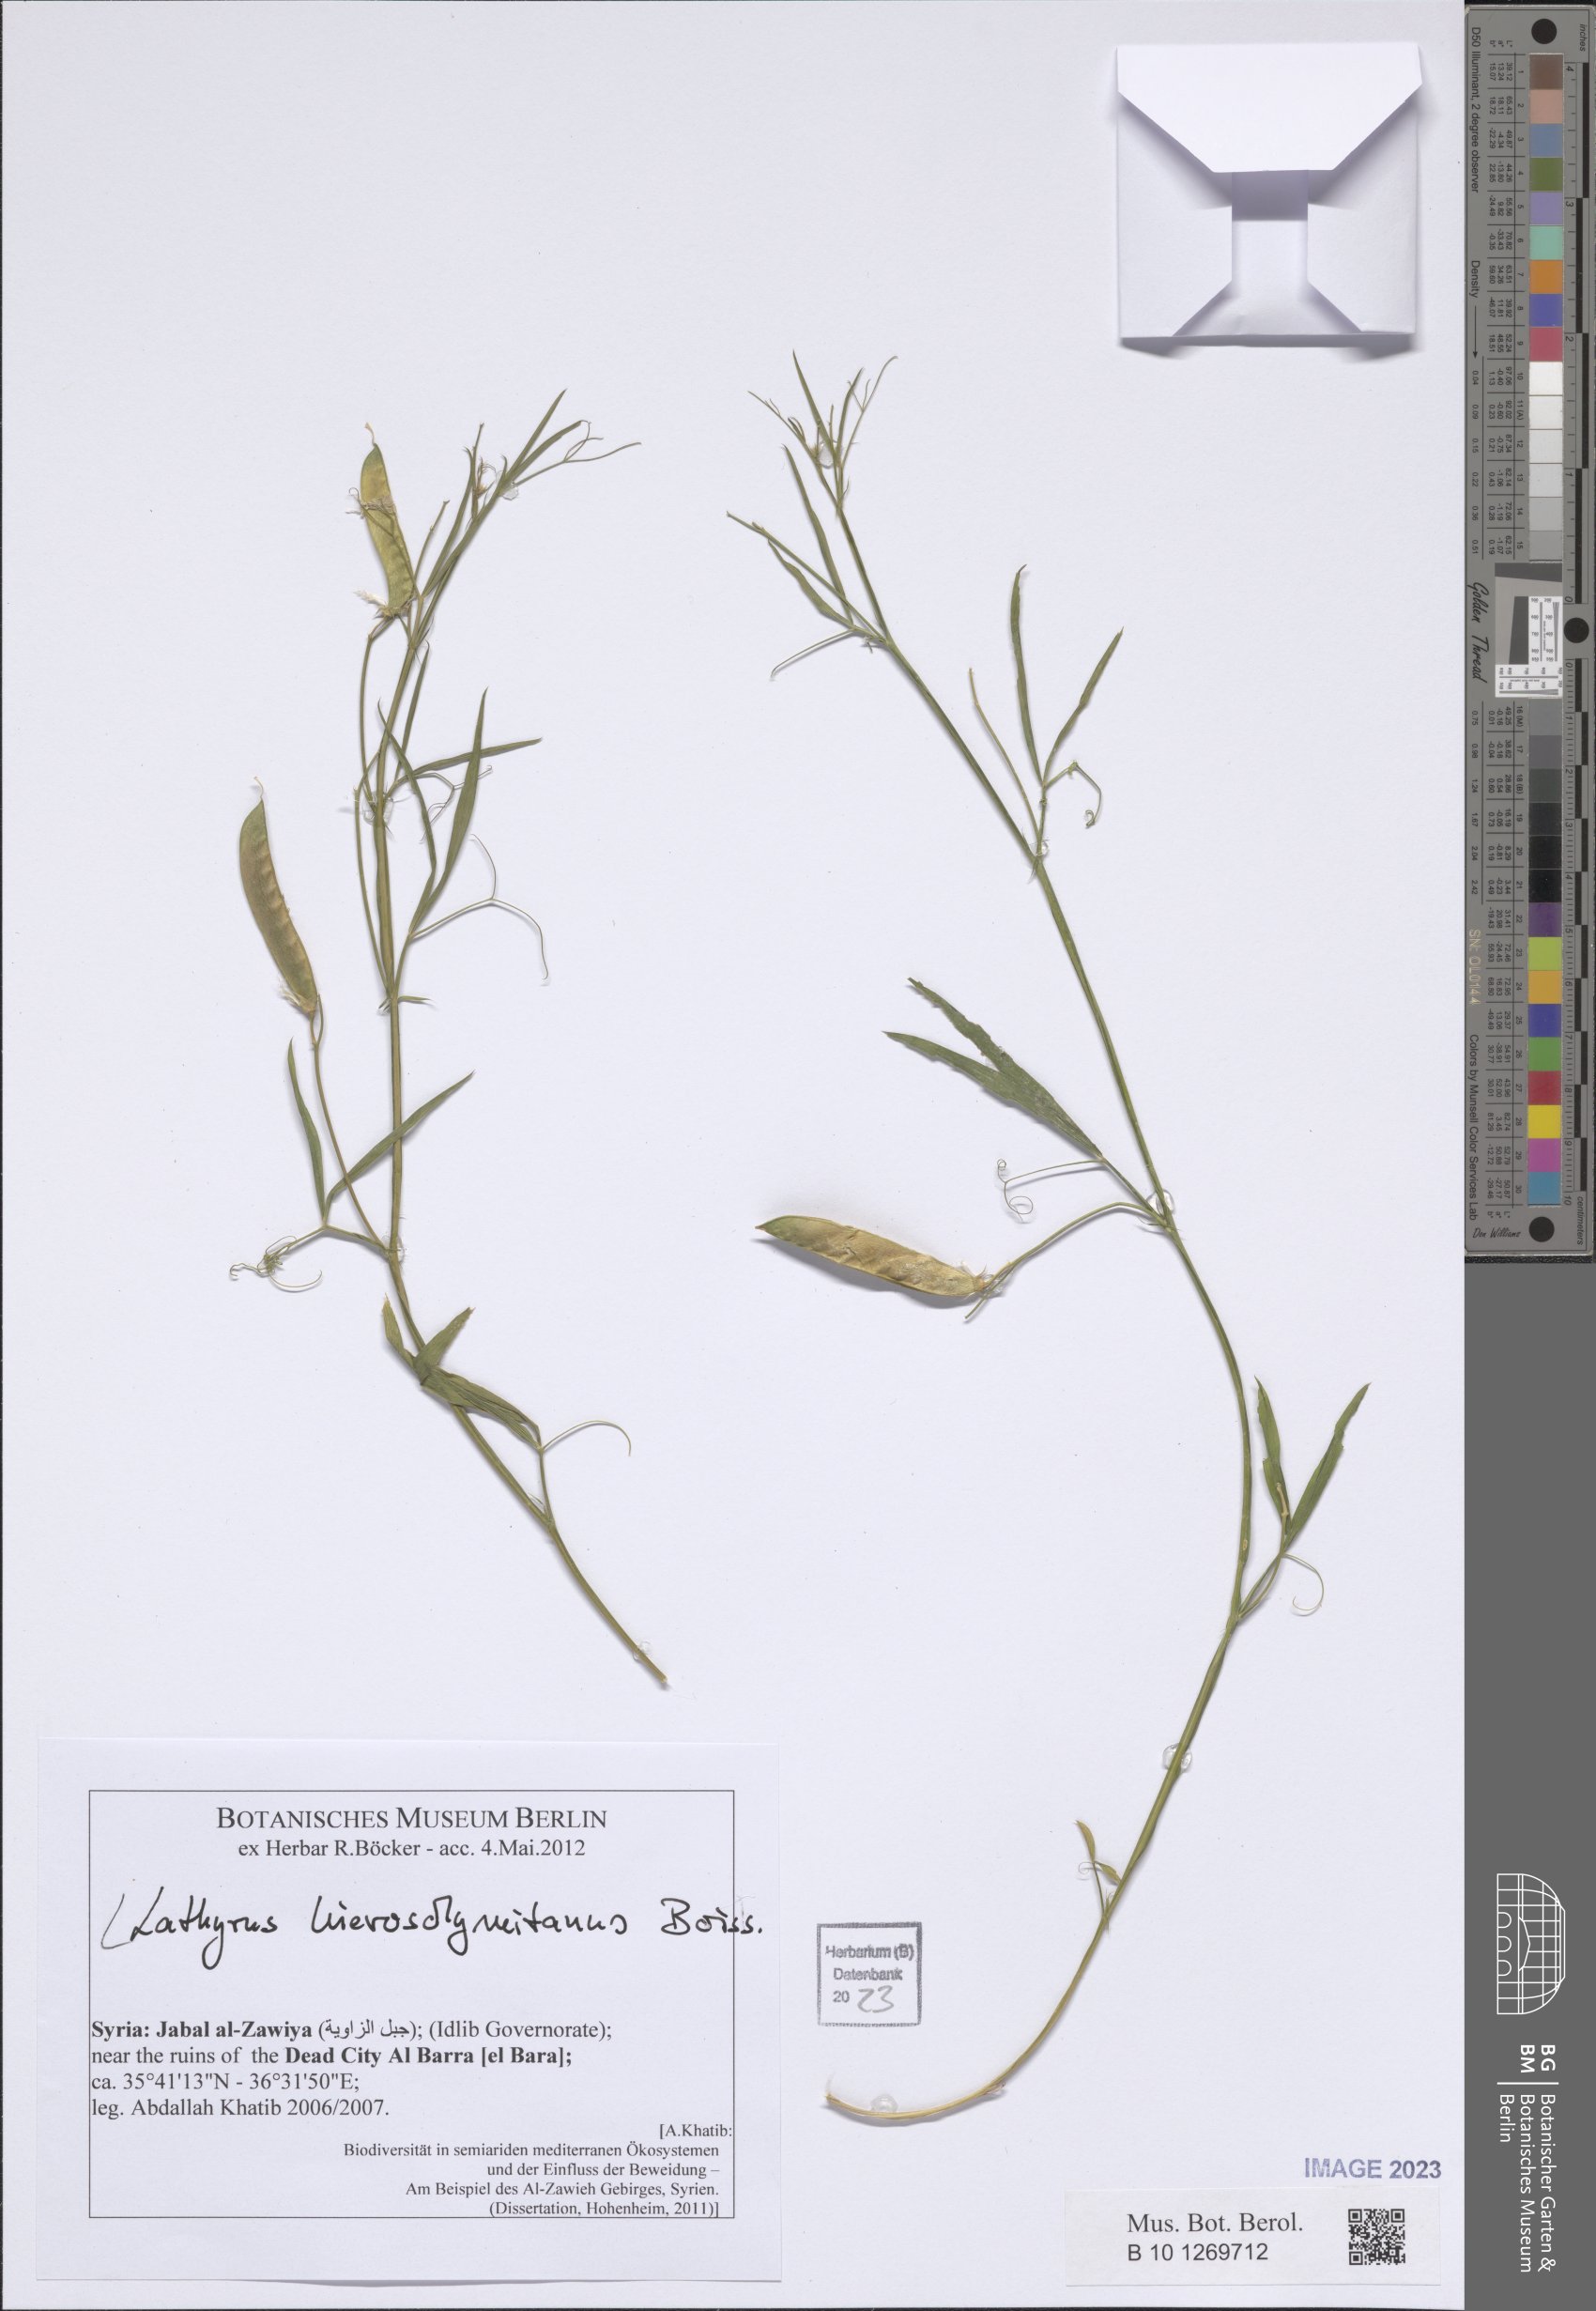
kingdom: Plantae
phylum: Tracheophyta
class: Magnoliopsida
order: Fabales
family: Fabaceae
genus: Lathyrus
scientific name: Lathyrus hierosolymitanus
